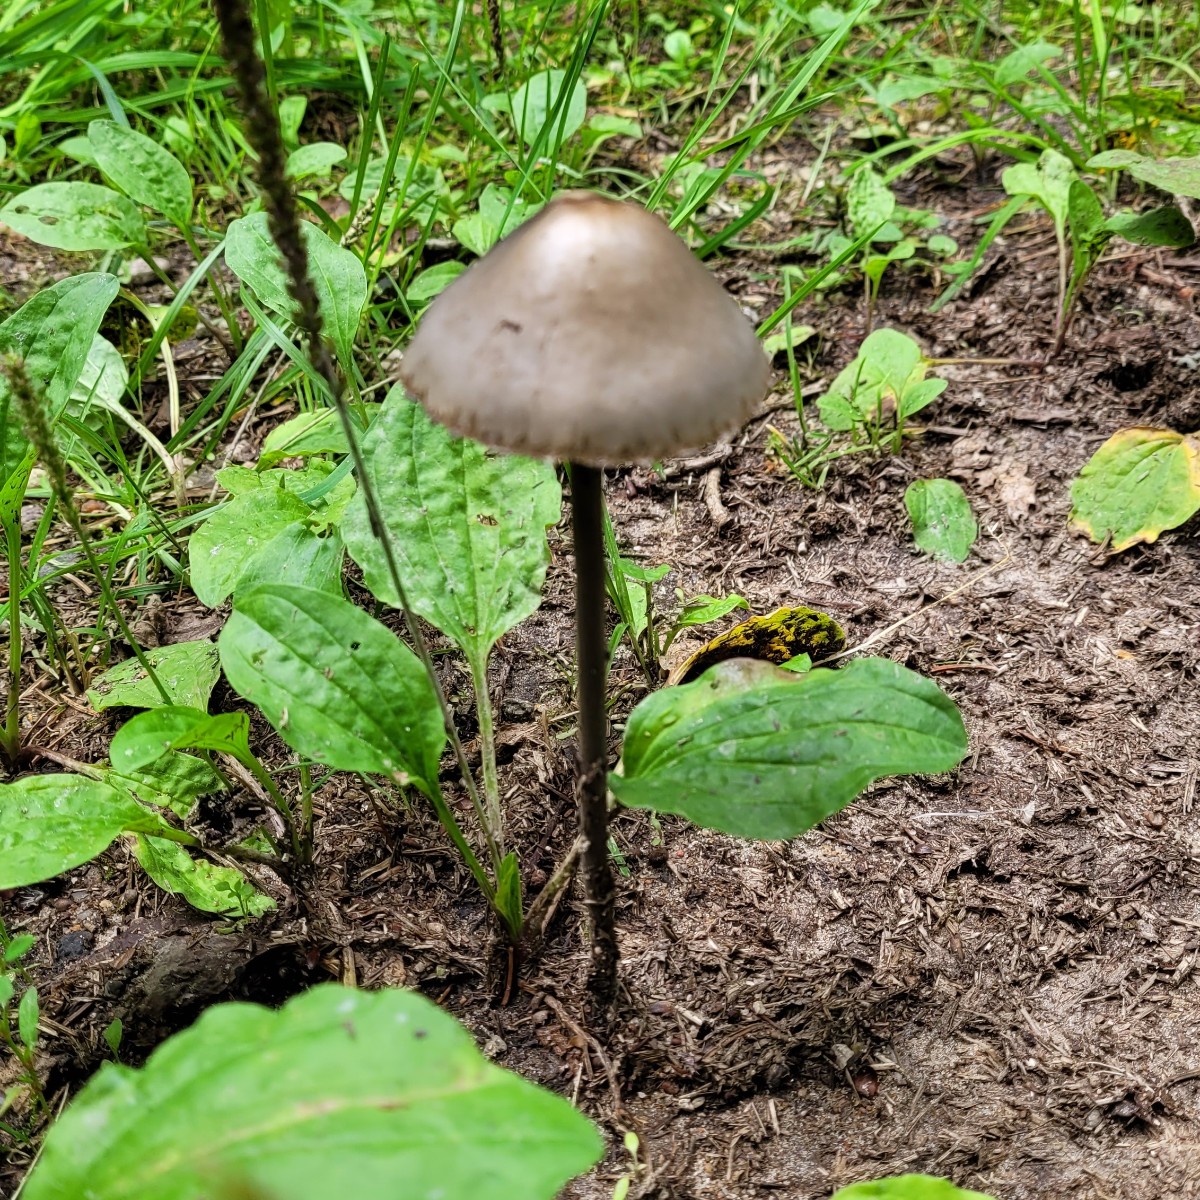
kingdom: Fungi
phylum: Basidiomycota
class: Agaricomycetes
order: Agaricales
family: Bolbitiaceae
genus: Panaeolus
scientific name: Panaeolus papilionaceus
